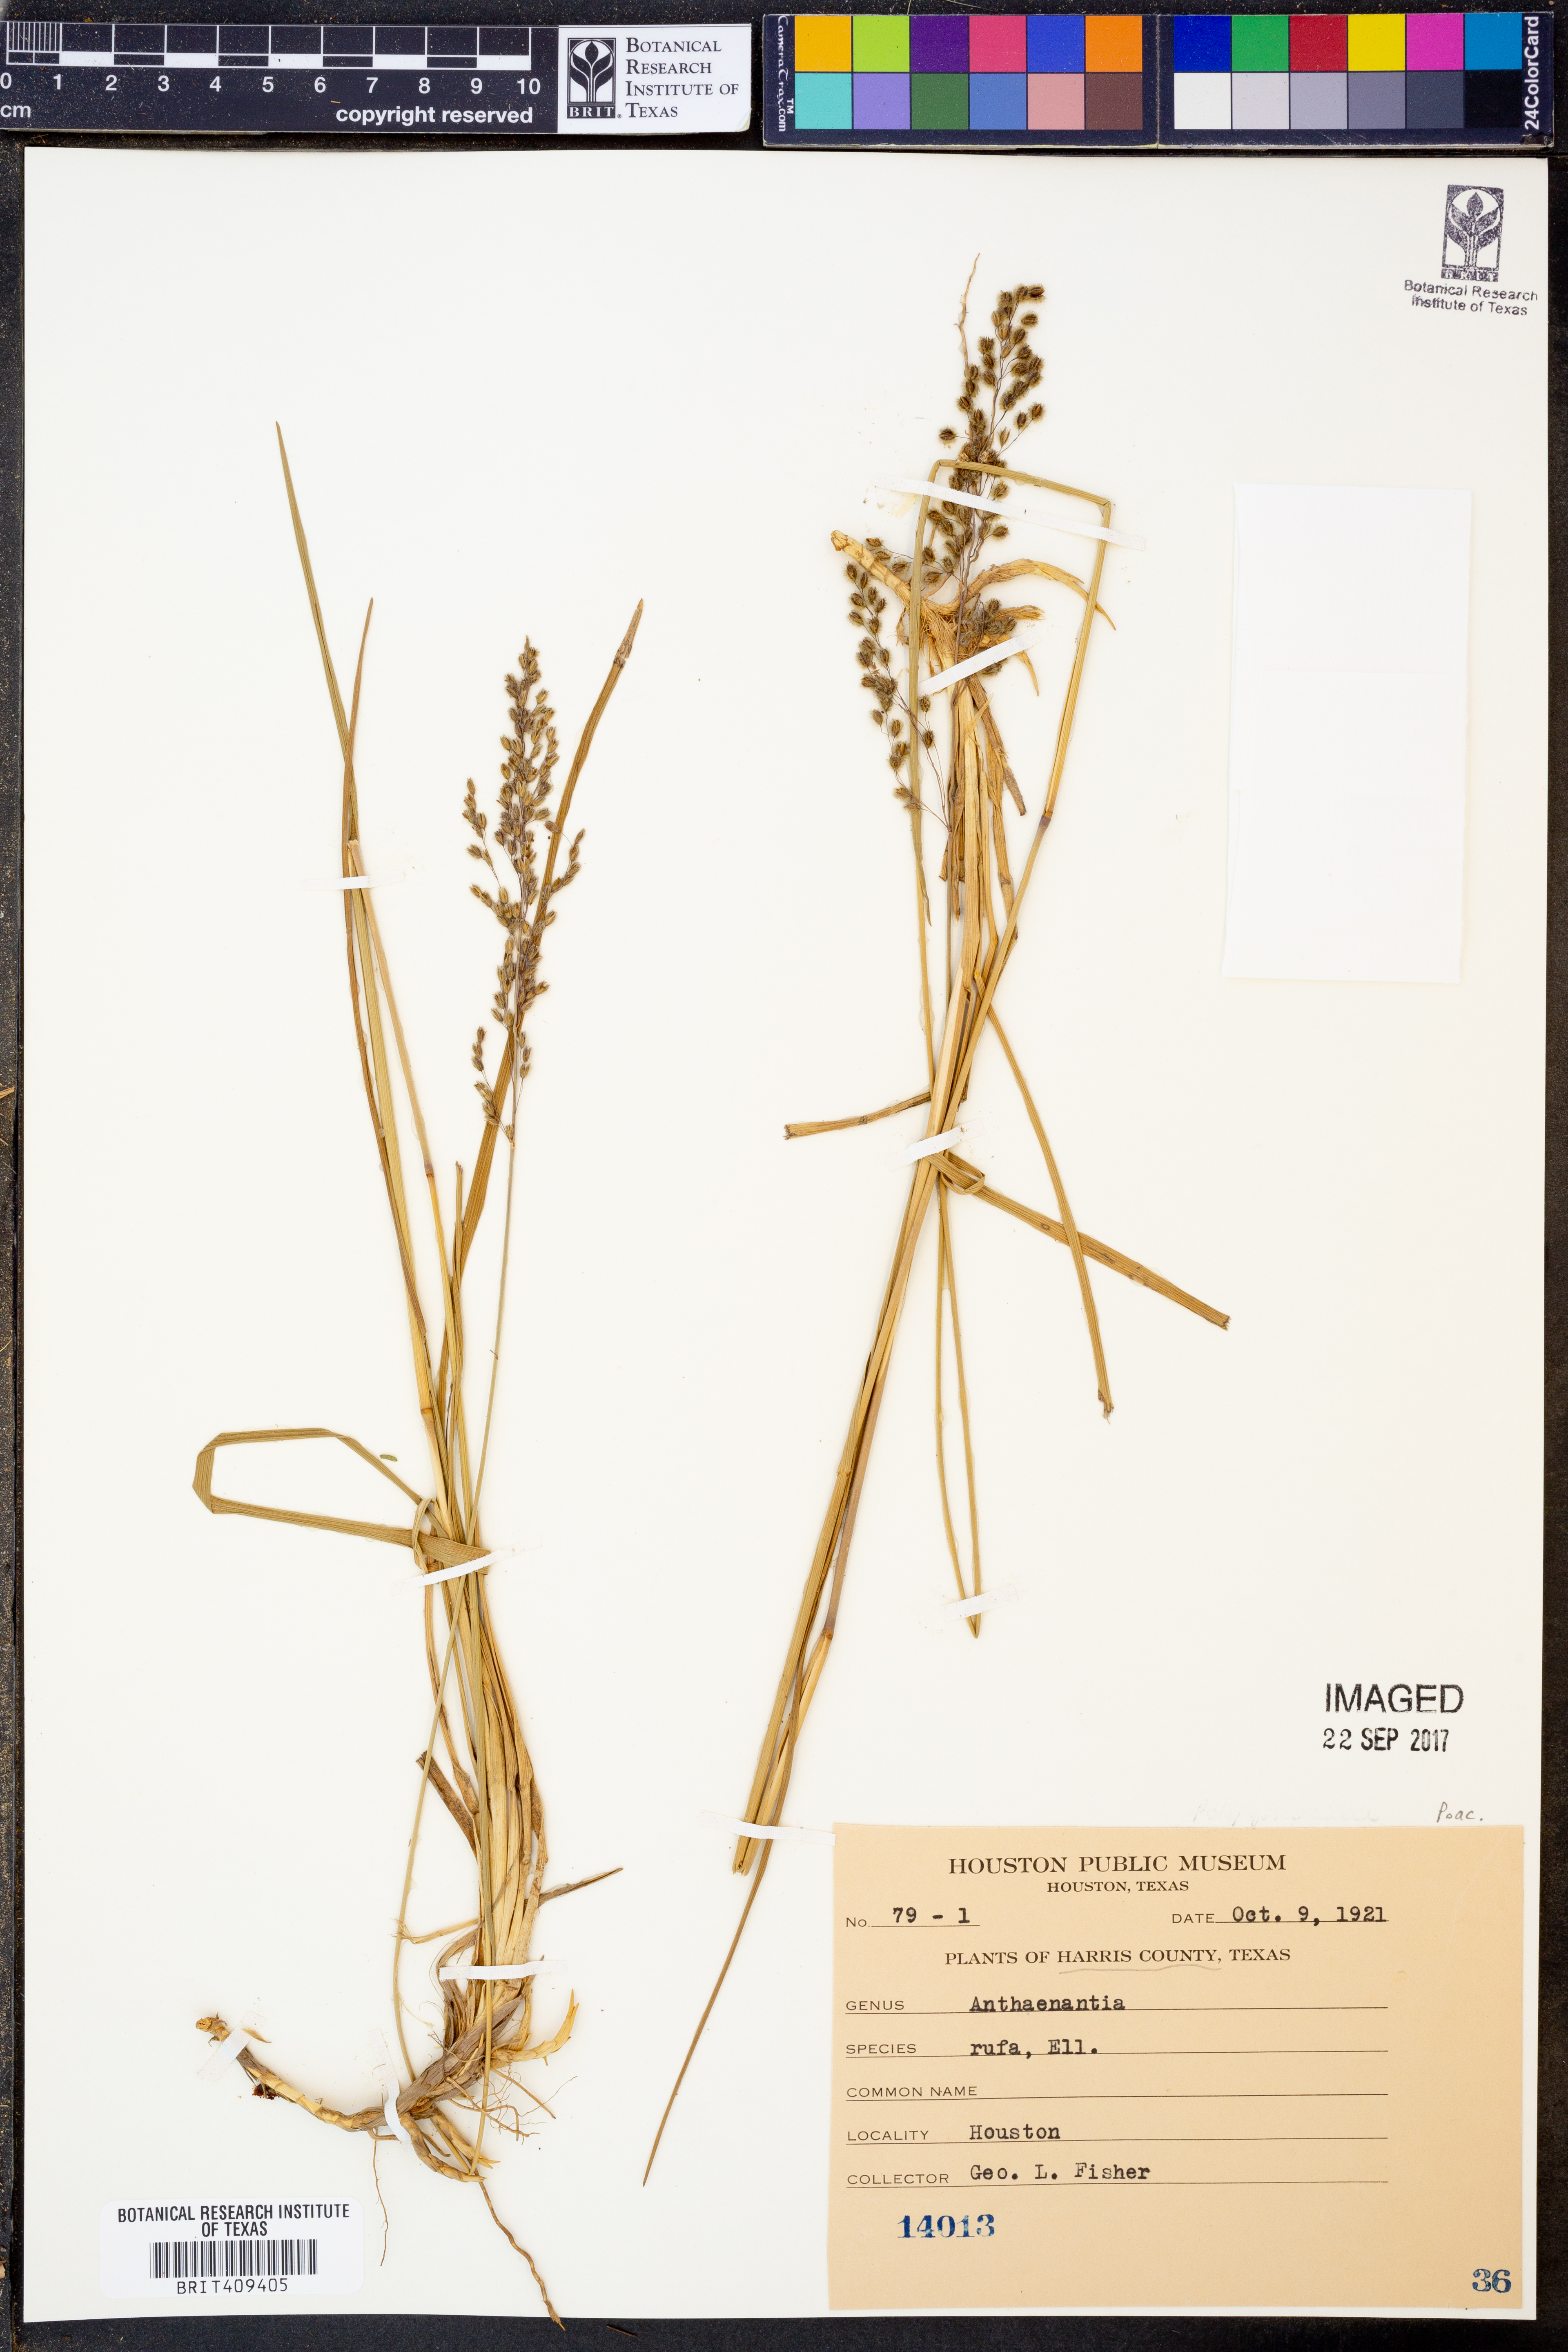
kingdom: Plantae
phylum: Tracheophyta
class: Liliopsida
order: Poales
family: Poaceae
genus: Anthenantia
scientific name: Anthenantia rufa
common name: Purple silkyscale
